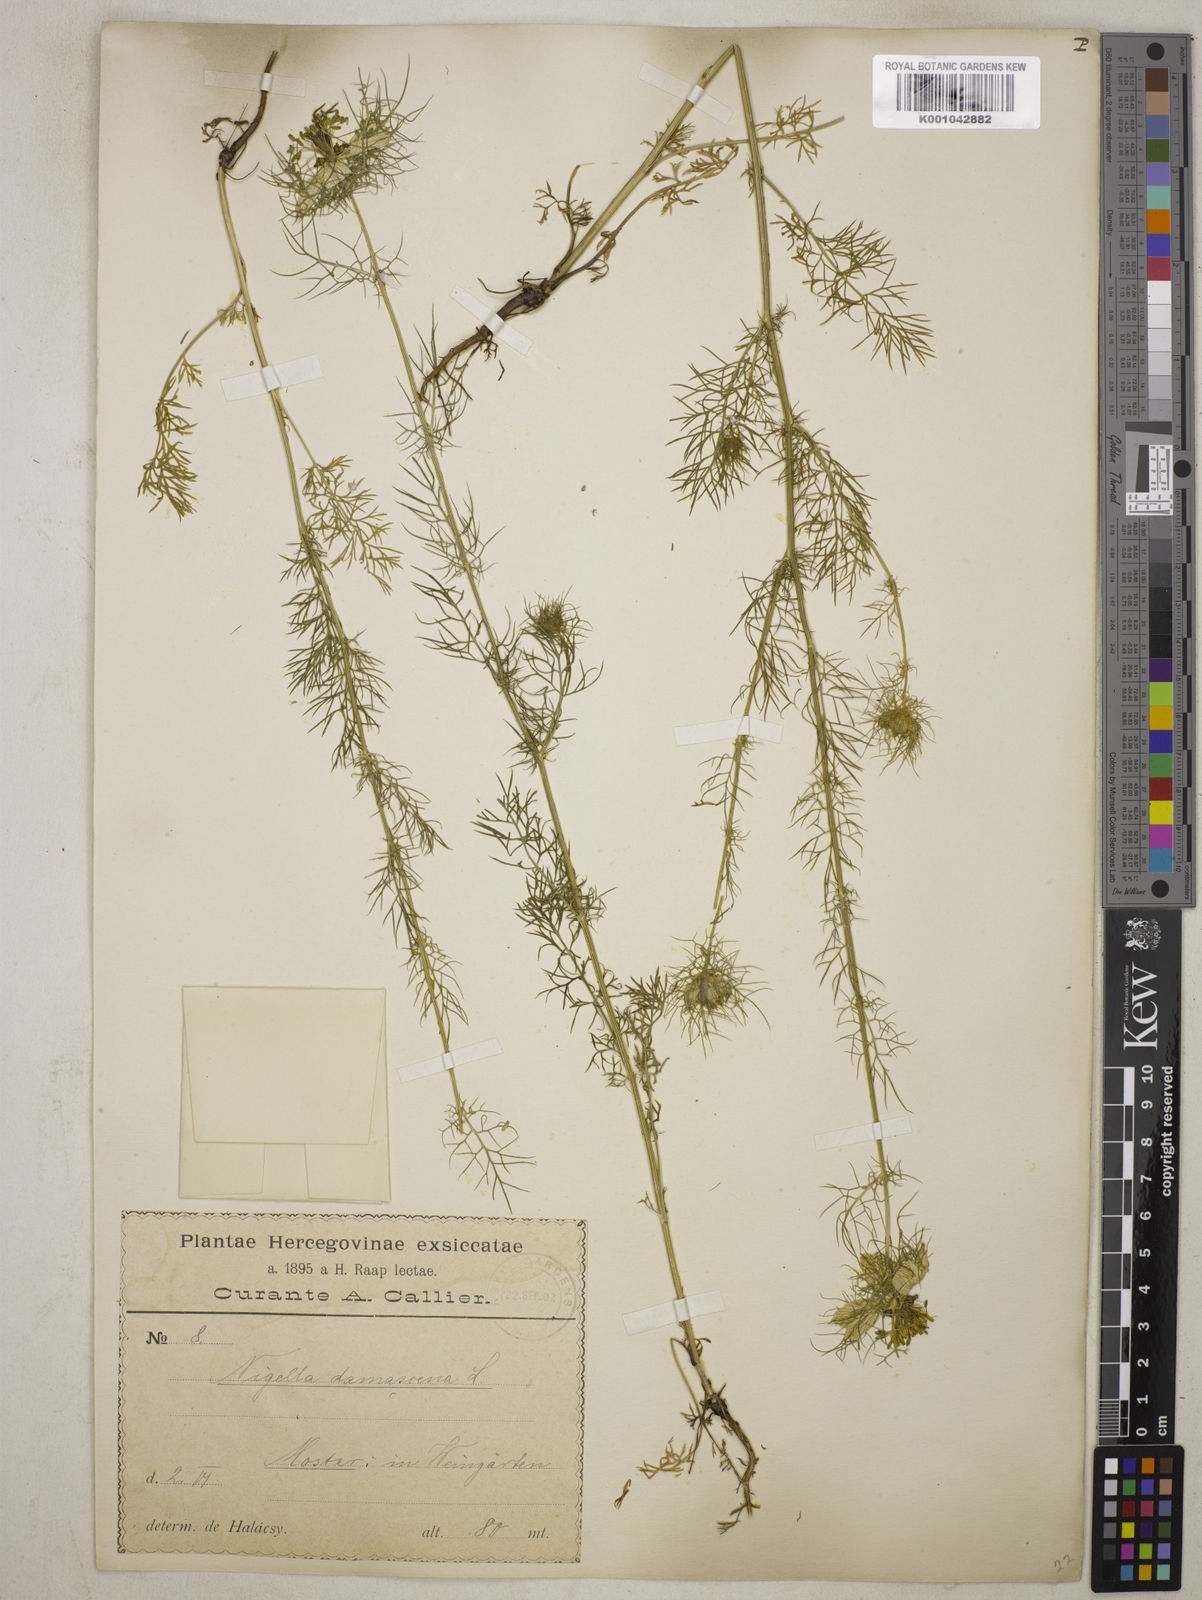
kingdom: Plantae
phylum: Tracheophyta
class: Magnoliopsida
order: Ranunculales
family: Ranunculaceae
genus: Nigella
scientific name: Nigella damascena
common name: Love-in-a-mist
